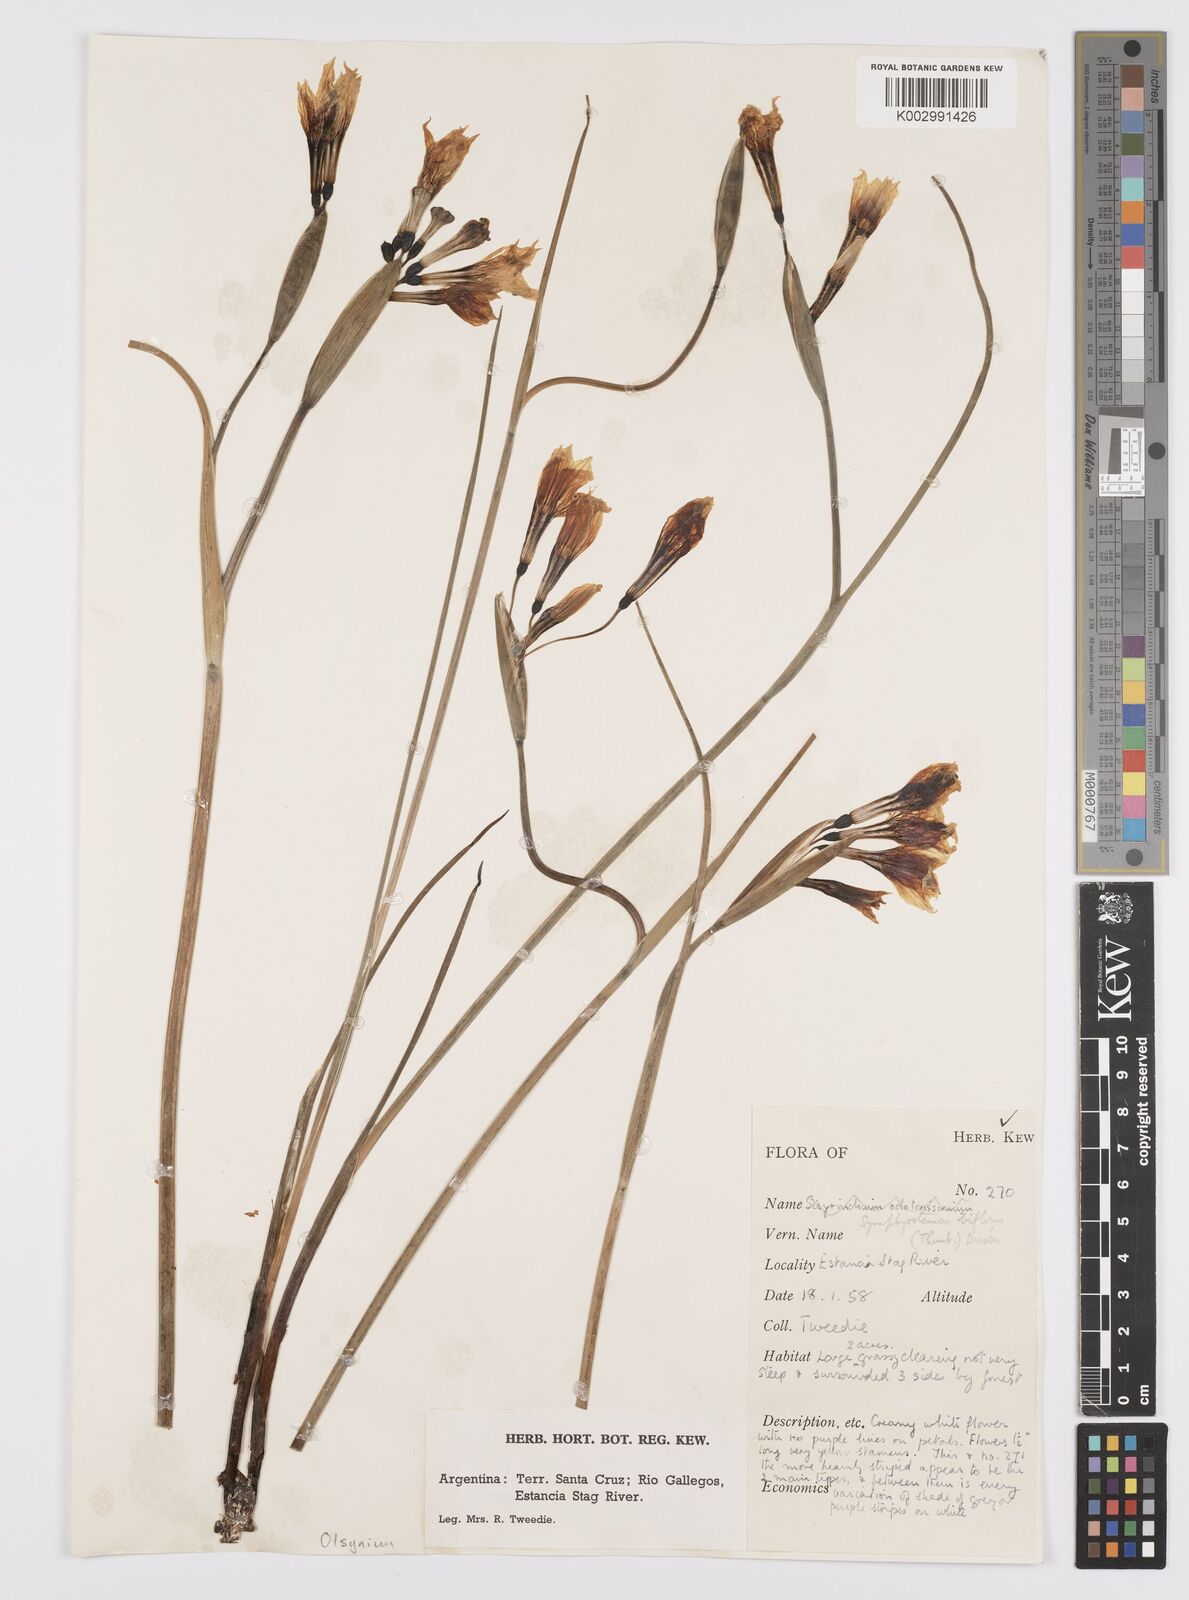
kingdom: Plantae
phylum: Tracheophyta
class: Liliopsida
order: Asparagales
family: Iridaceae
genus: Olsynium
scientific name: Olsynium biflorum
